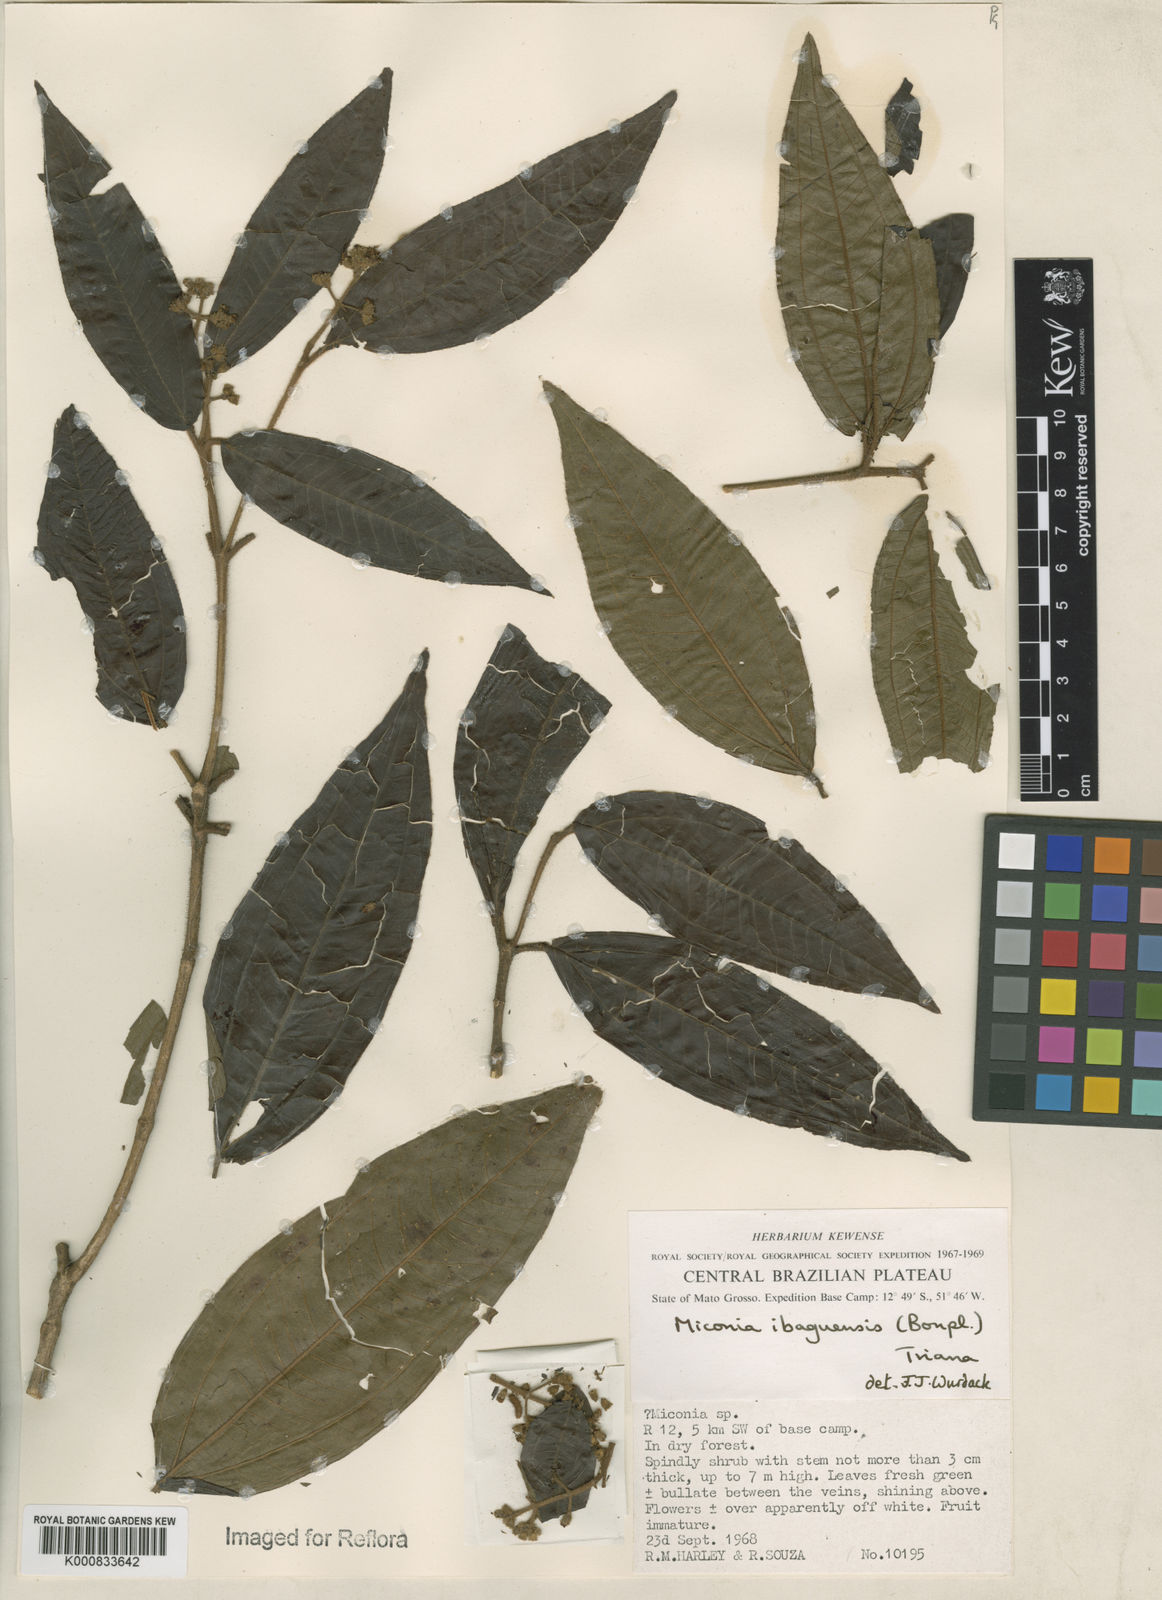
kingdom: Plantae
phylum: Tracheophyta
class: Magnoliopsida
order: Myrtales
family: Melastomataceae
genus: Miconia
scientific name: Miconia ibaguensis
